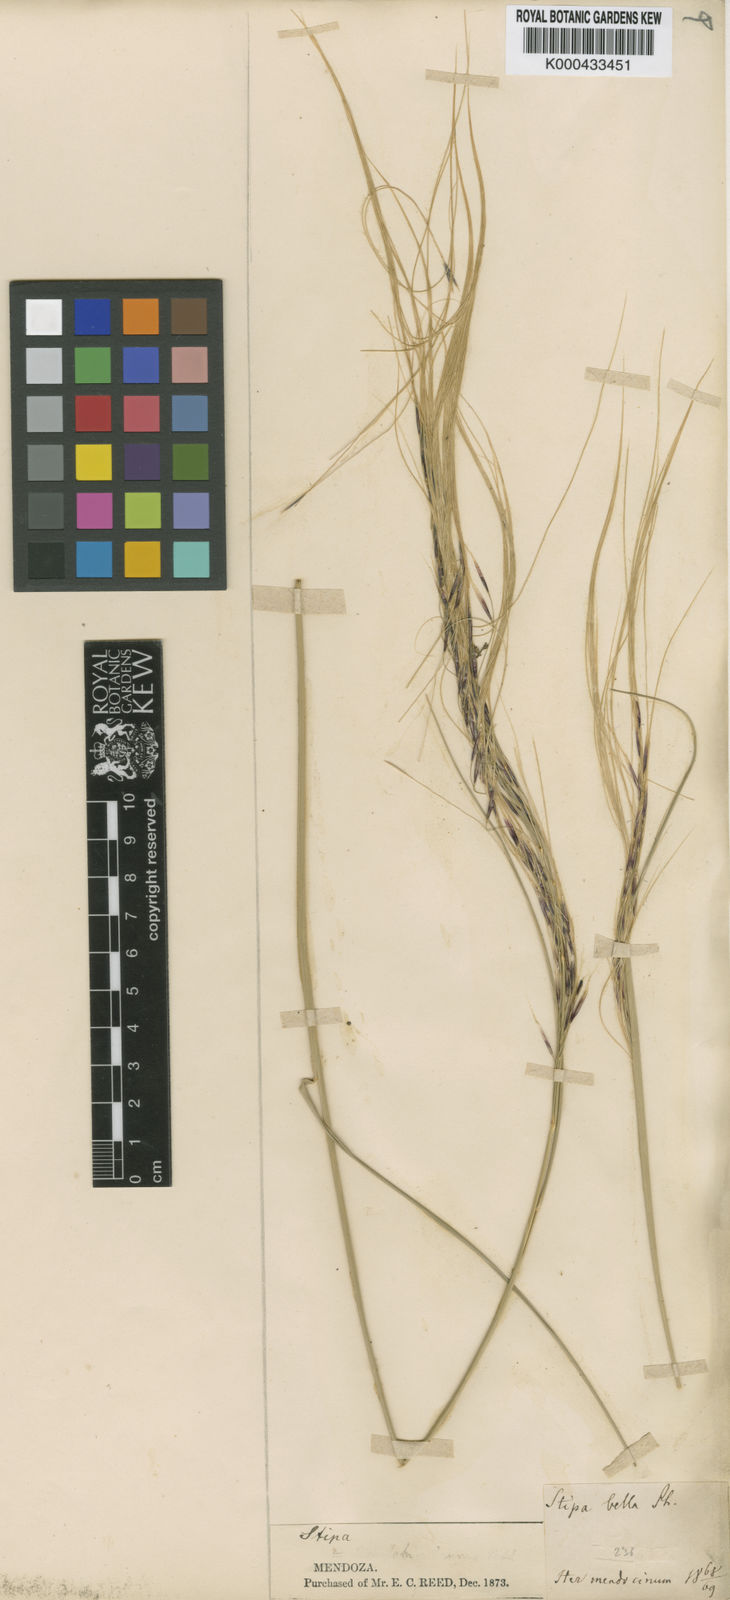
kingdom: Plantae
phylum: Tracheophyta
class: Liliopsida
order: Poales
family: Poaceae
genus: Stipa
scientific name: Stipa
